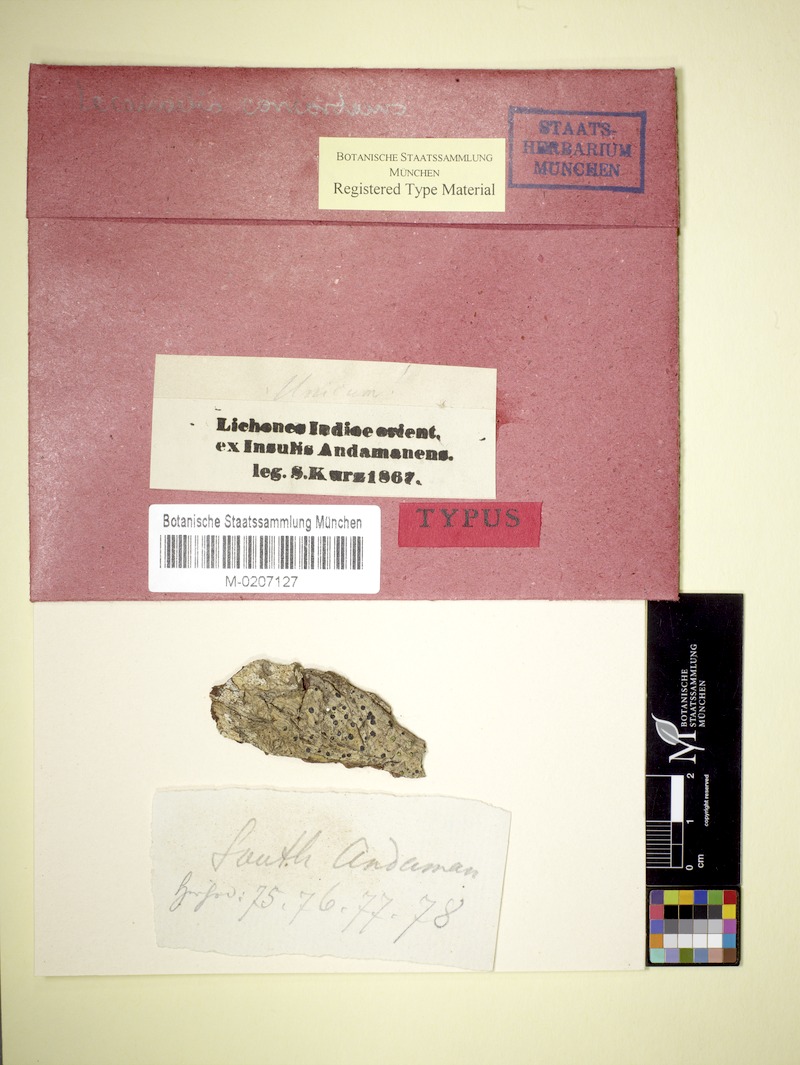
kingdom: Fungi
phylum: Ascomycota
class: Arthoniomycetes
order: Arthoniales
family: Opegraphaceae
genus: Cresponea
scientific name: Cresponea proximata
